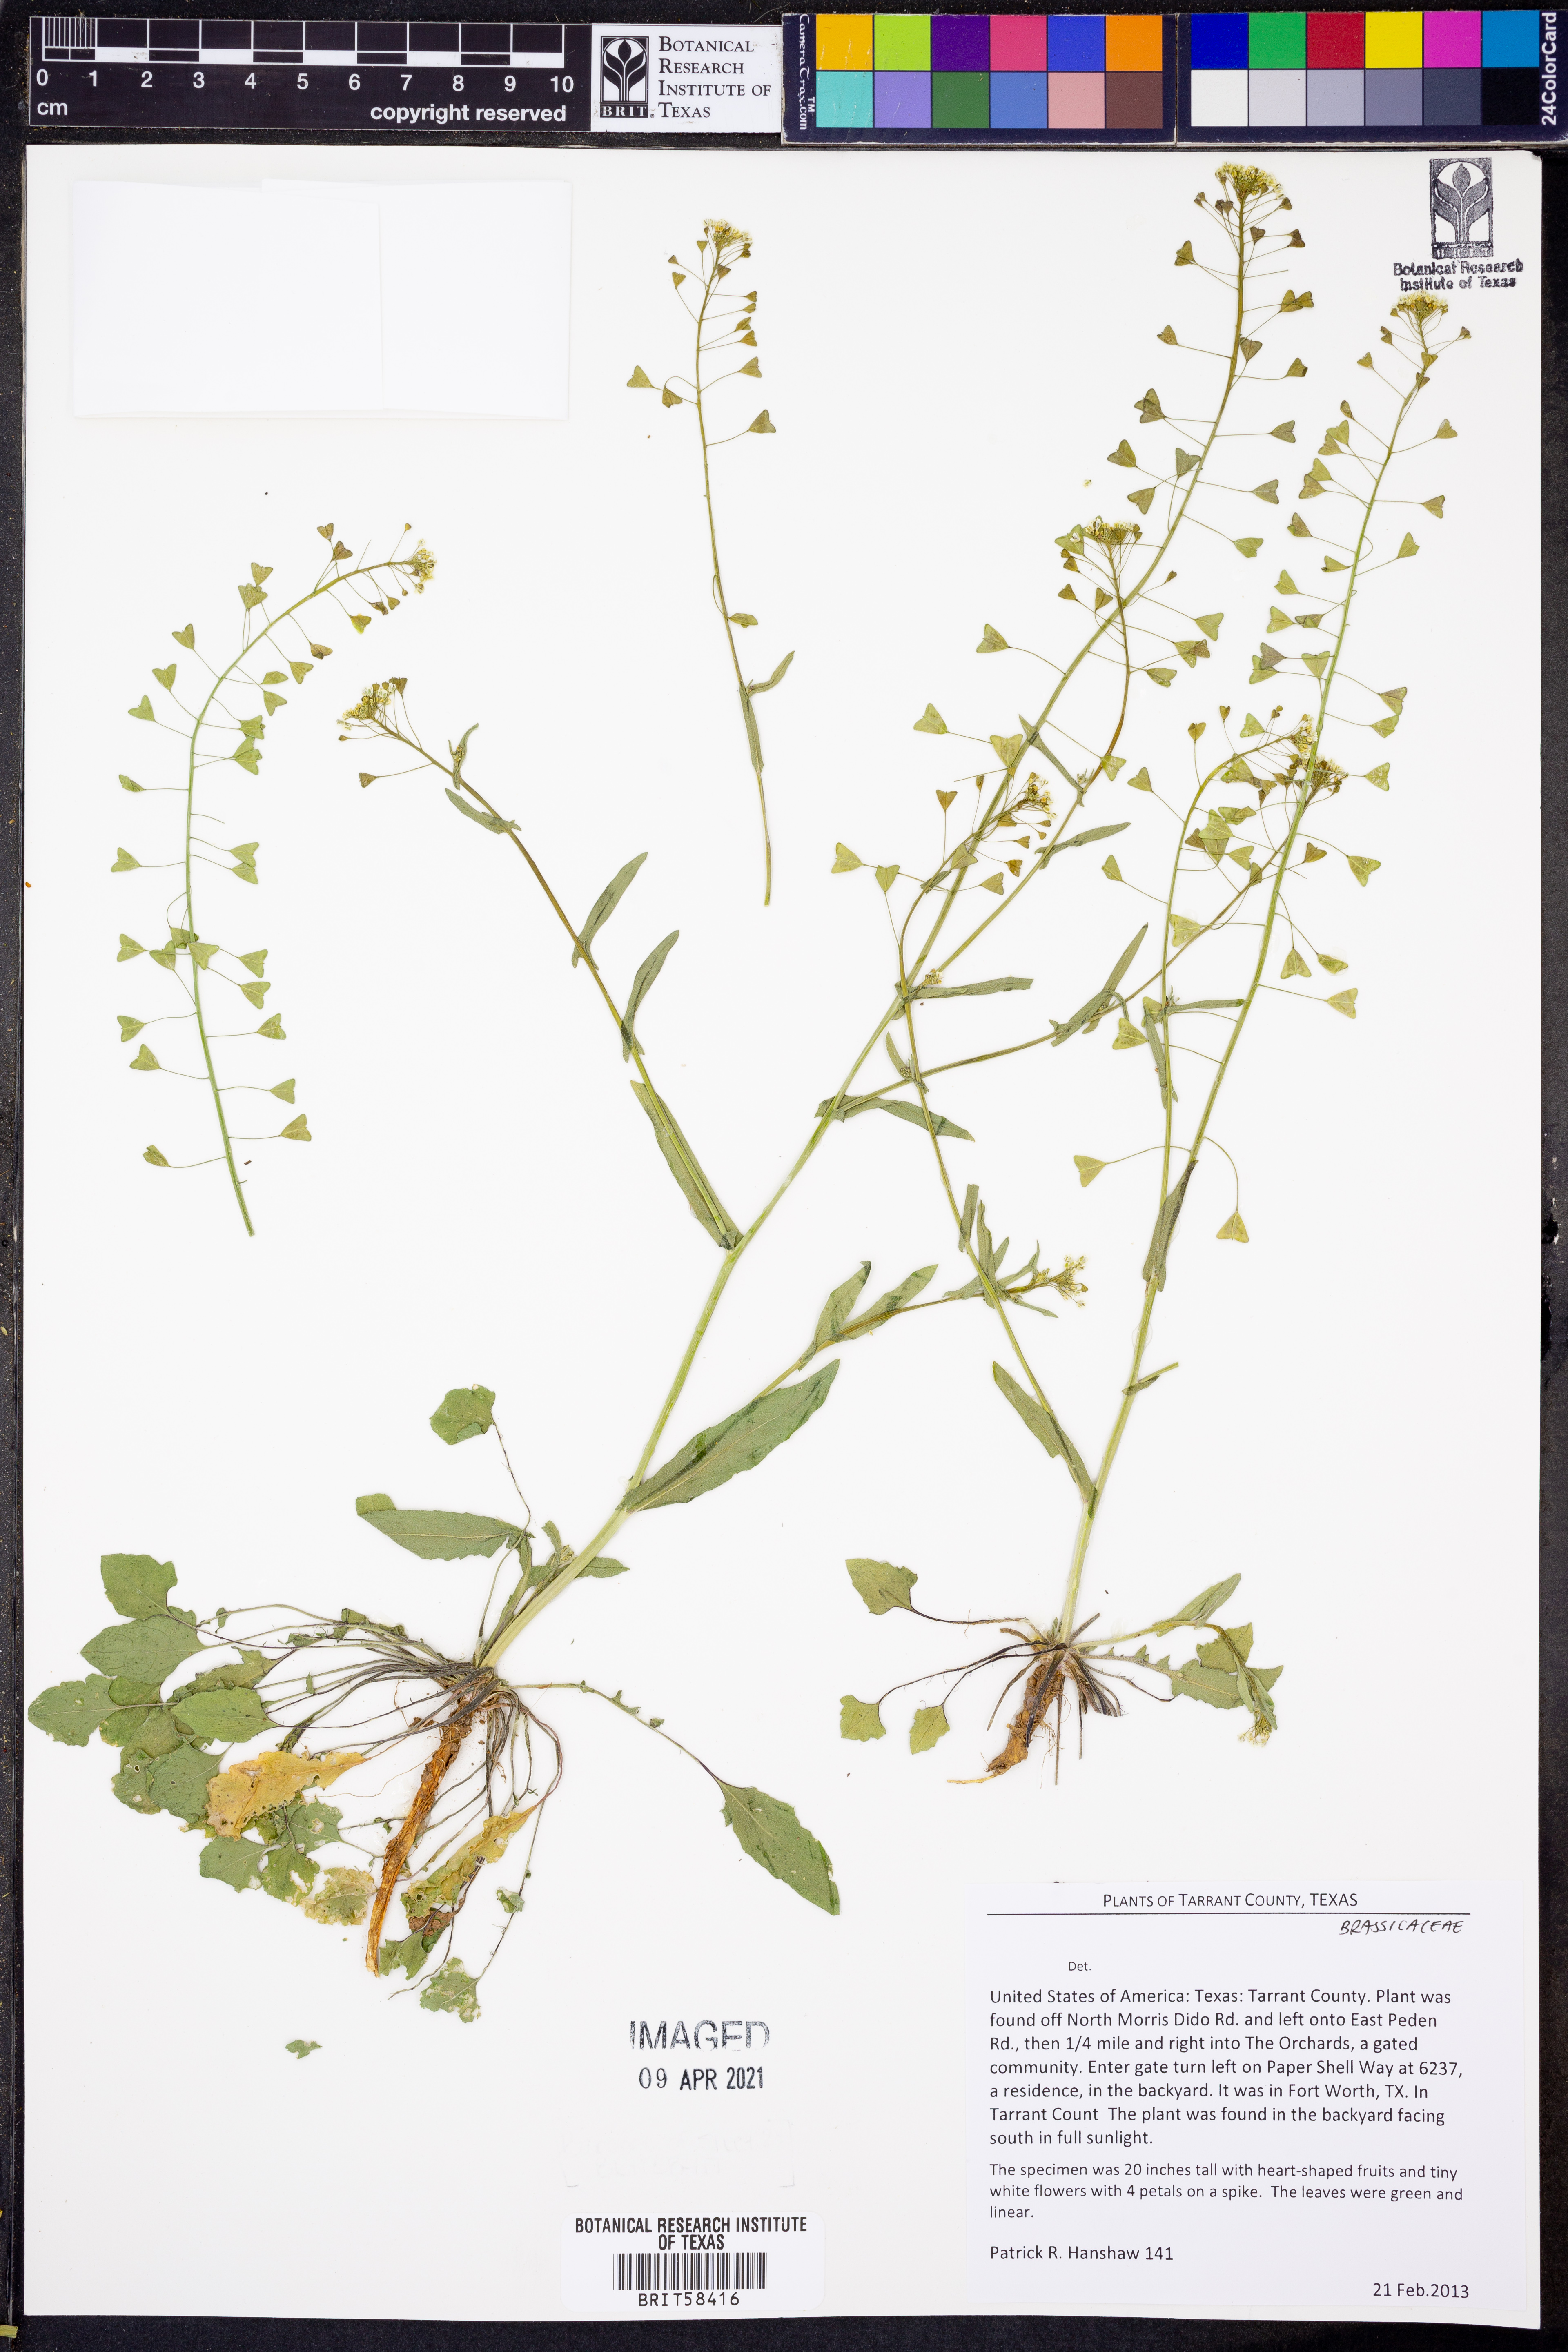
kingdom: Plantae
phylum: Tracheophyta
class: Magnoliopsida
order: Brassicales
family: Brassicaceae
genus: Capsella
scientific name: Capsella bursa-pastoris
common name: Shepherd's purse
